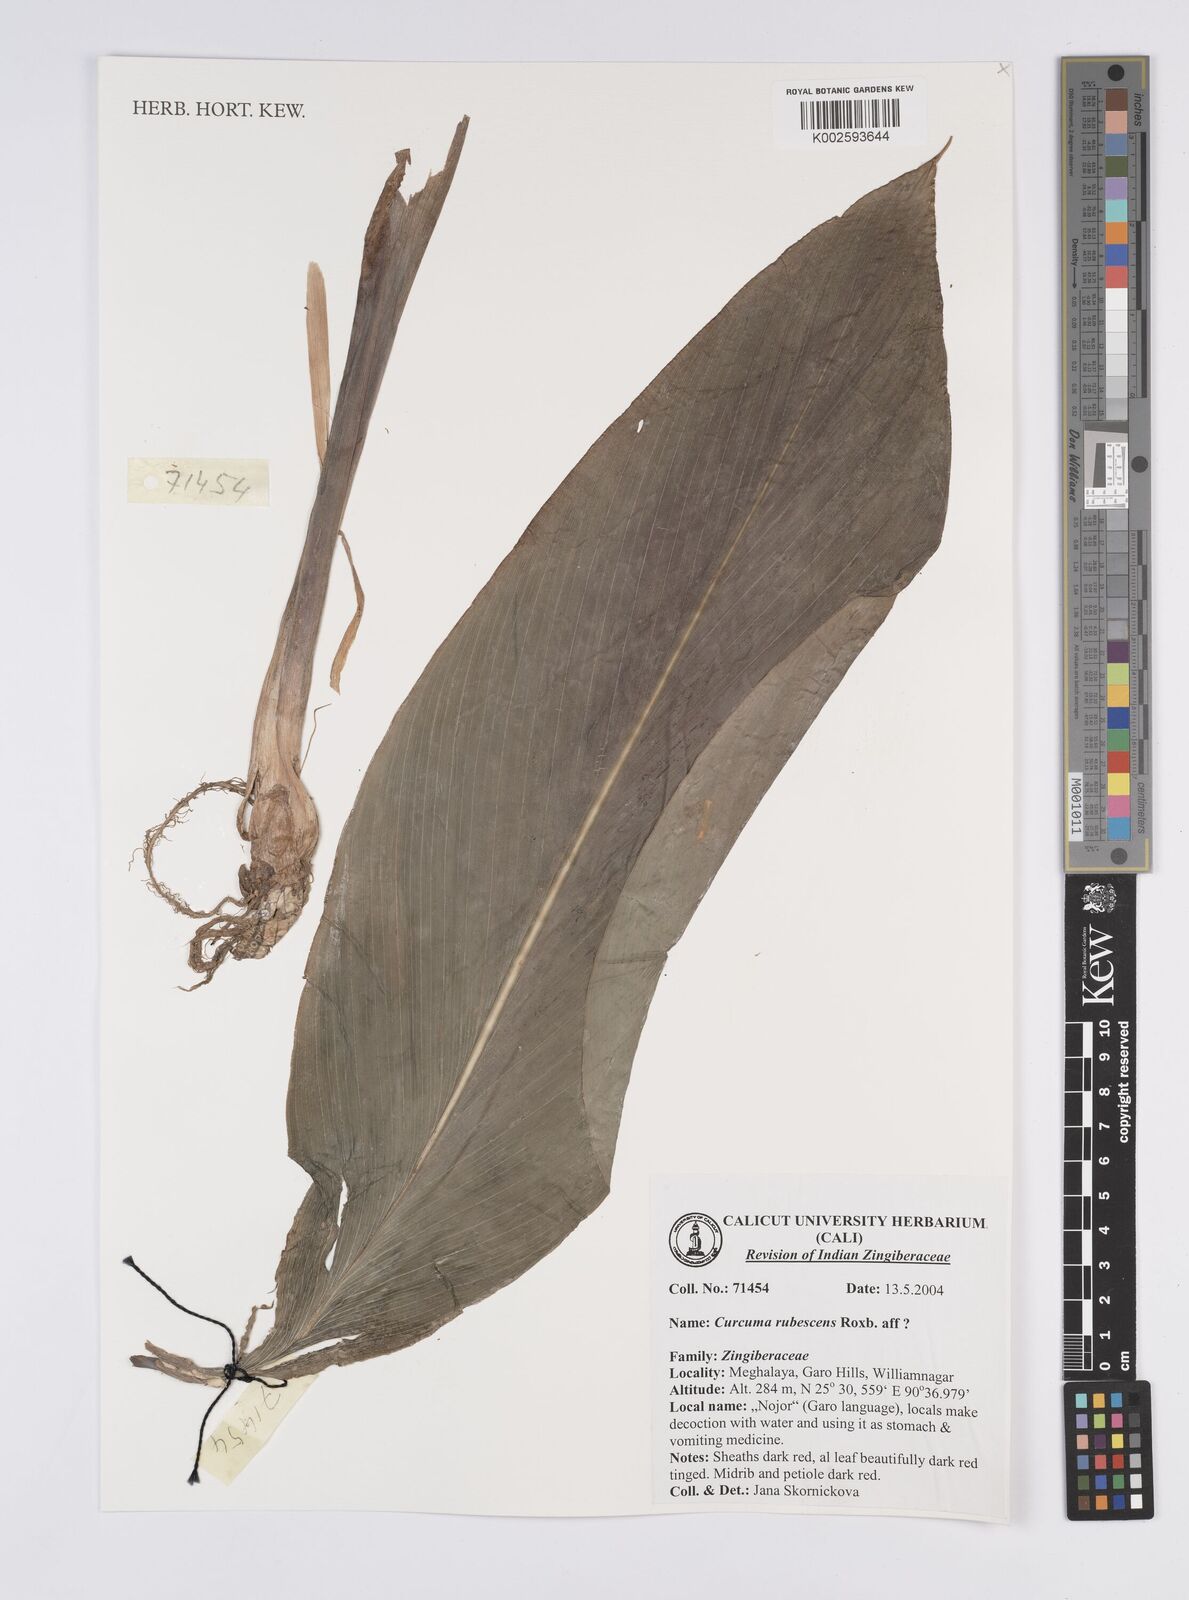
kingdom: Plantae
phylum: Tracheophyta
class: Liliopsida
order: Zingiberales
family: Zingiberaceae
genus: Curcuma
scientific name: Curcuma rubescens
